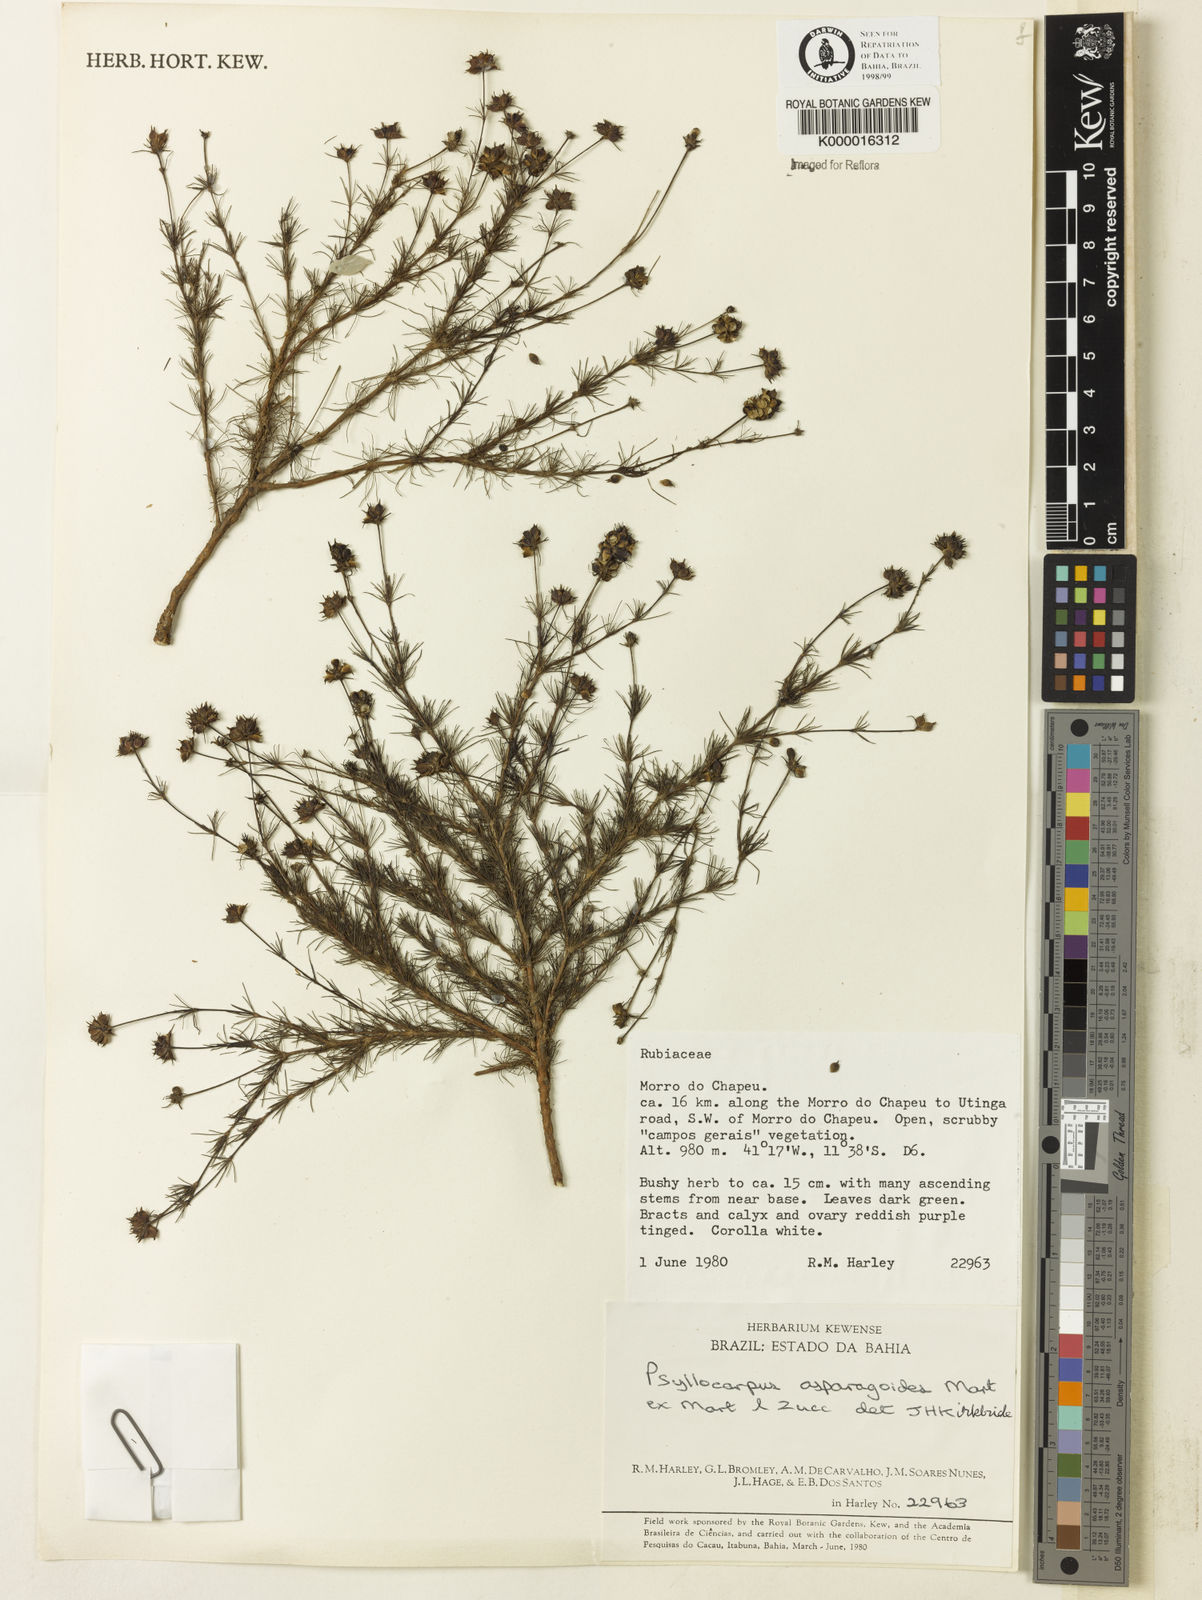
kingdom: Plantae
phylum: Tracheophyta
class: Magnoliopsida
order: Gentianales
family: Rubiaceae
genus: Psyllocarpus
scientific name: Psyllocarpus asparagoides
